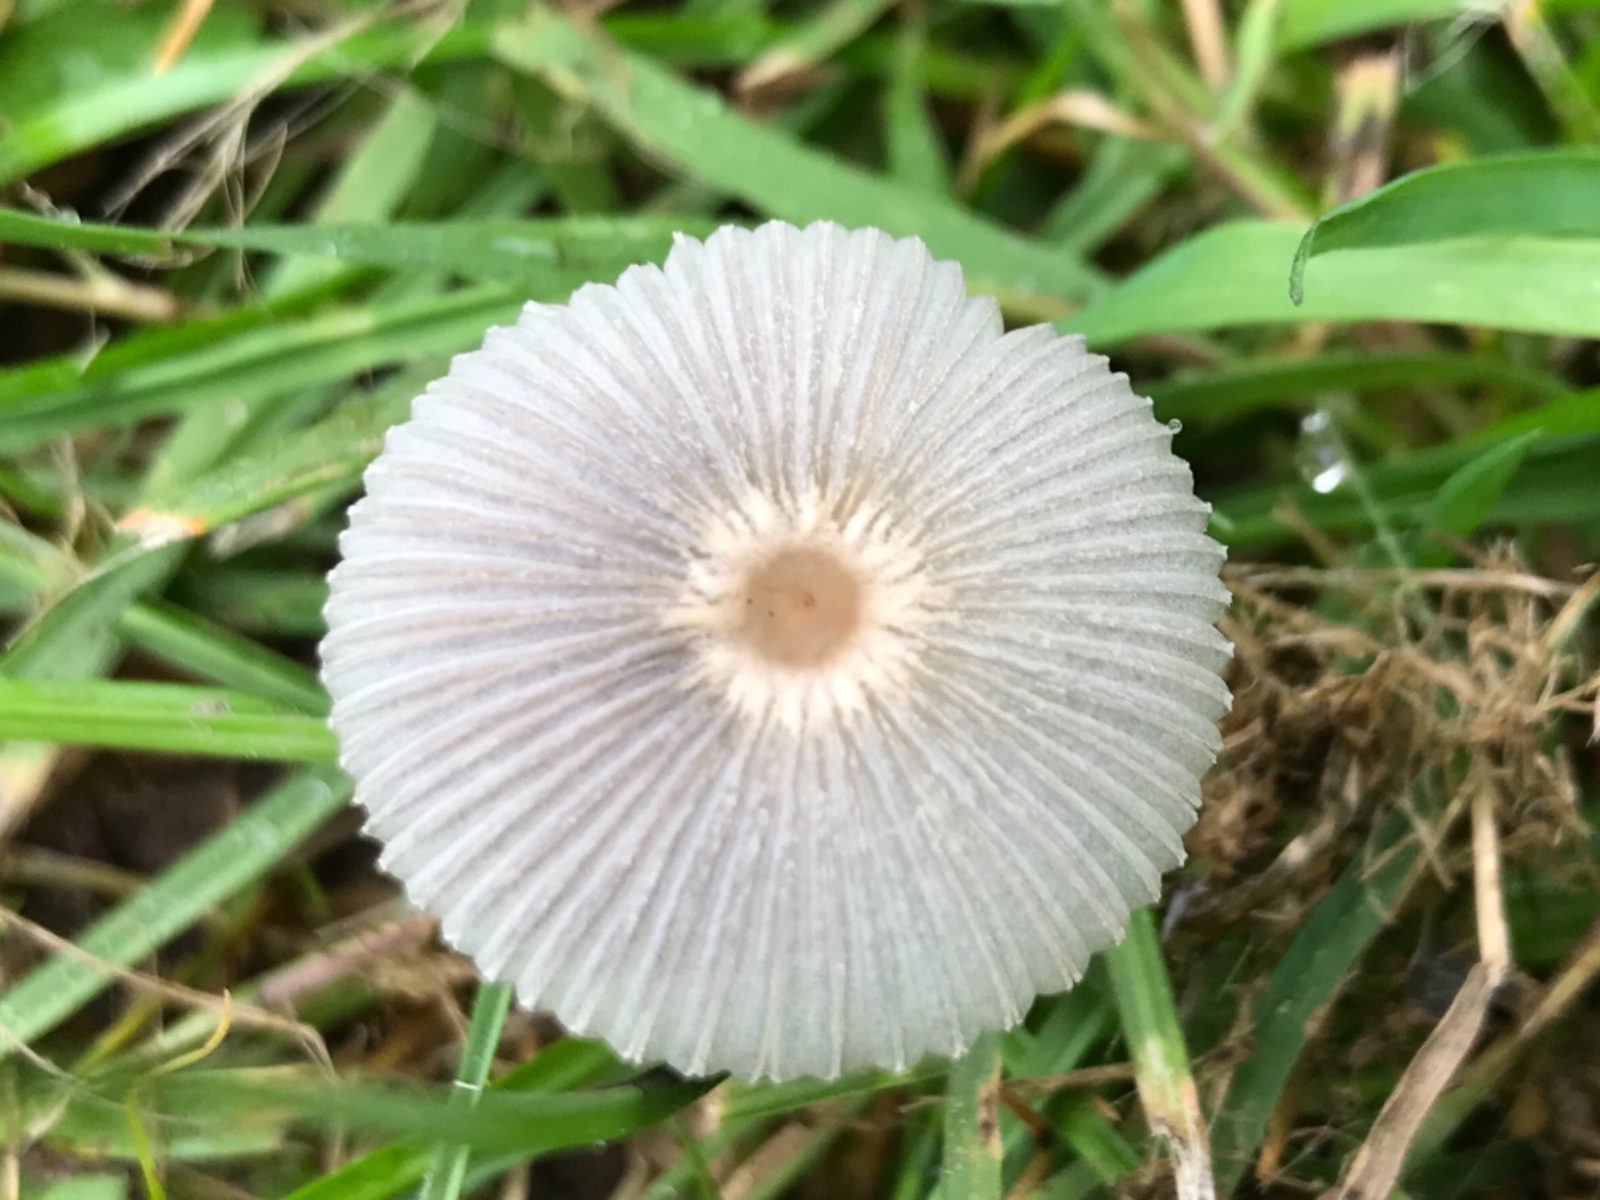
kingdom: Fungi
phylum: Basidiomycota
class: Agaricomycetes
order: Agaricales
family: Psathyrellaceae
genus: Parasola
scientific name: Parasola
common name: hjulhat
